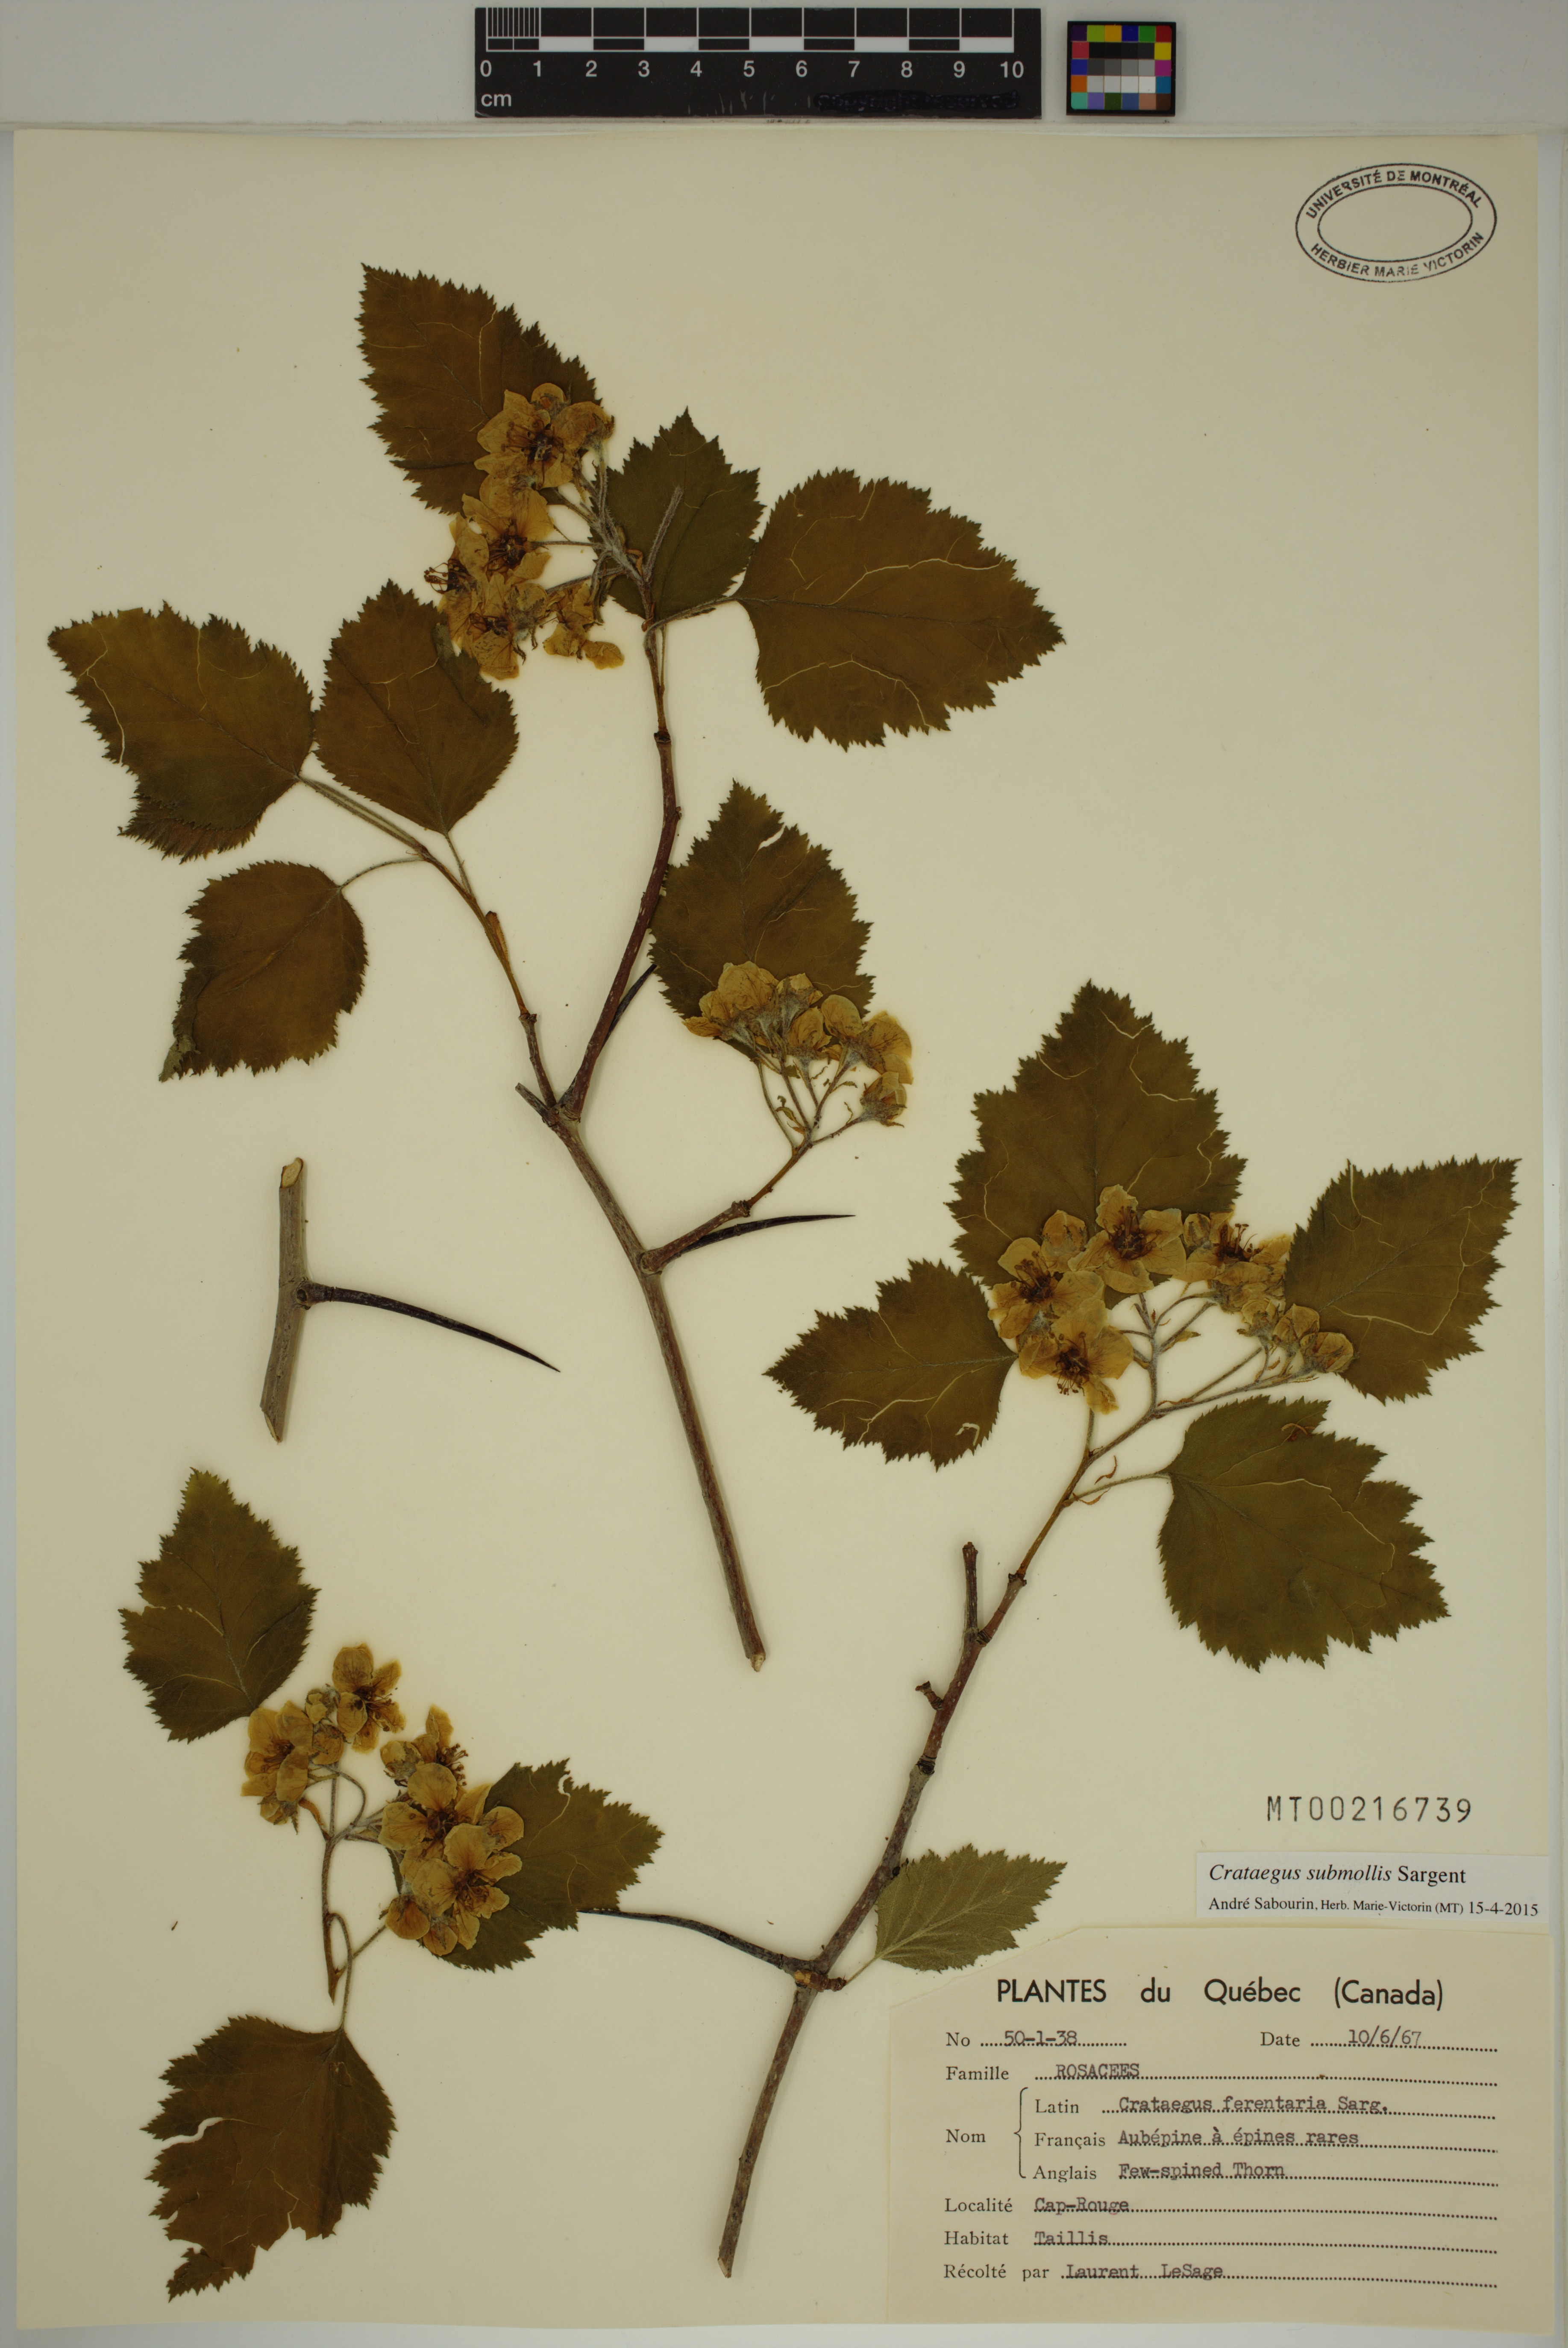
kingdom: Plantae
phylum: Tracheophyta
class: Magnoliopsida
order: Rosales
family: Rosaceae
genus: Crataegus
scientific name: Crataegus submollis
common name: Hairy cockspurthorn
